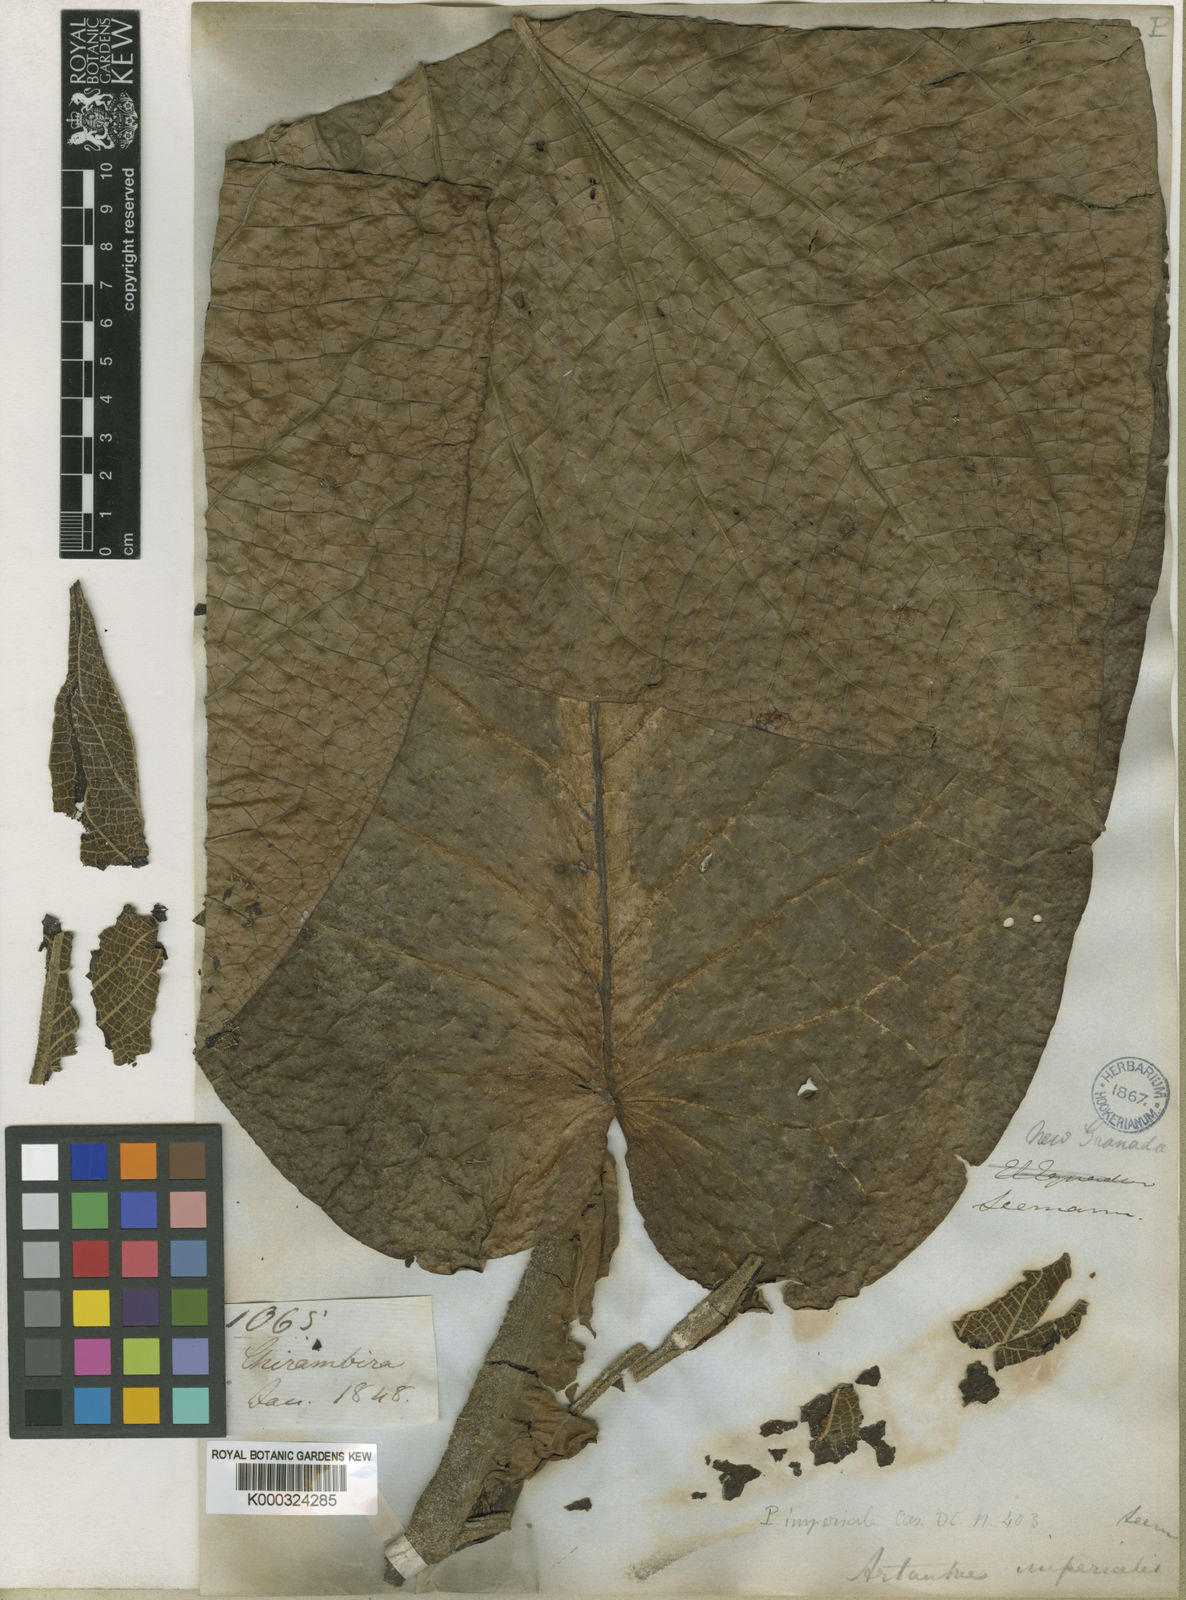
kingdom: Plantae
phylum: Tracheophyta
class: Magnoliopsida
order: Piperales
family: Piperaceae
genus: Piper
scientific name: Piper imperiale
